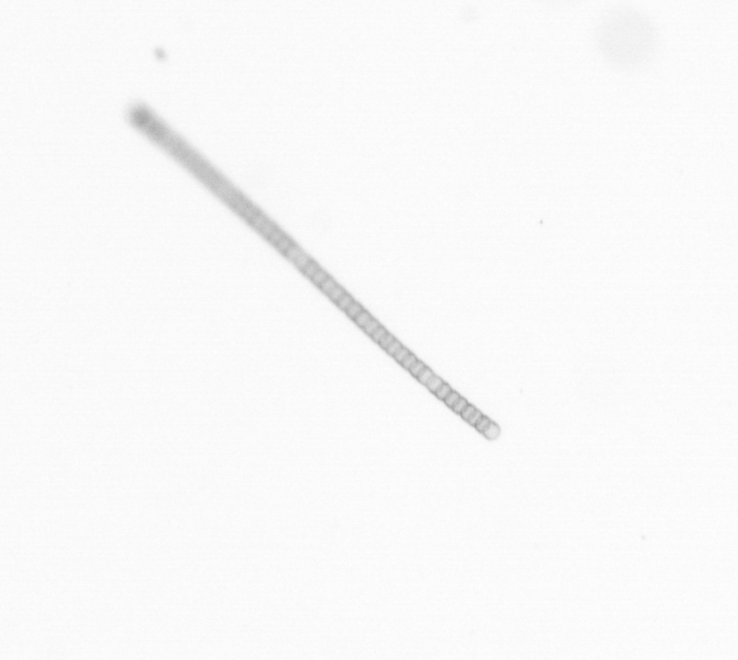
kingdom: Chromista
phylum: Ochrophyta
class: Bacillariophyceae
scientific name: Bacillariophyceae
